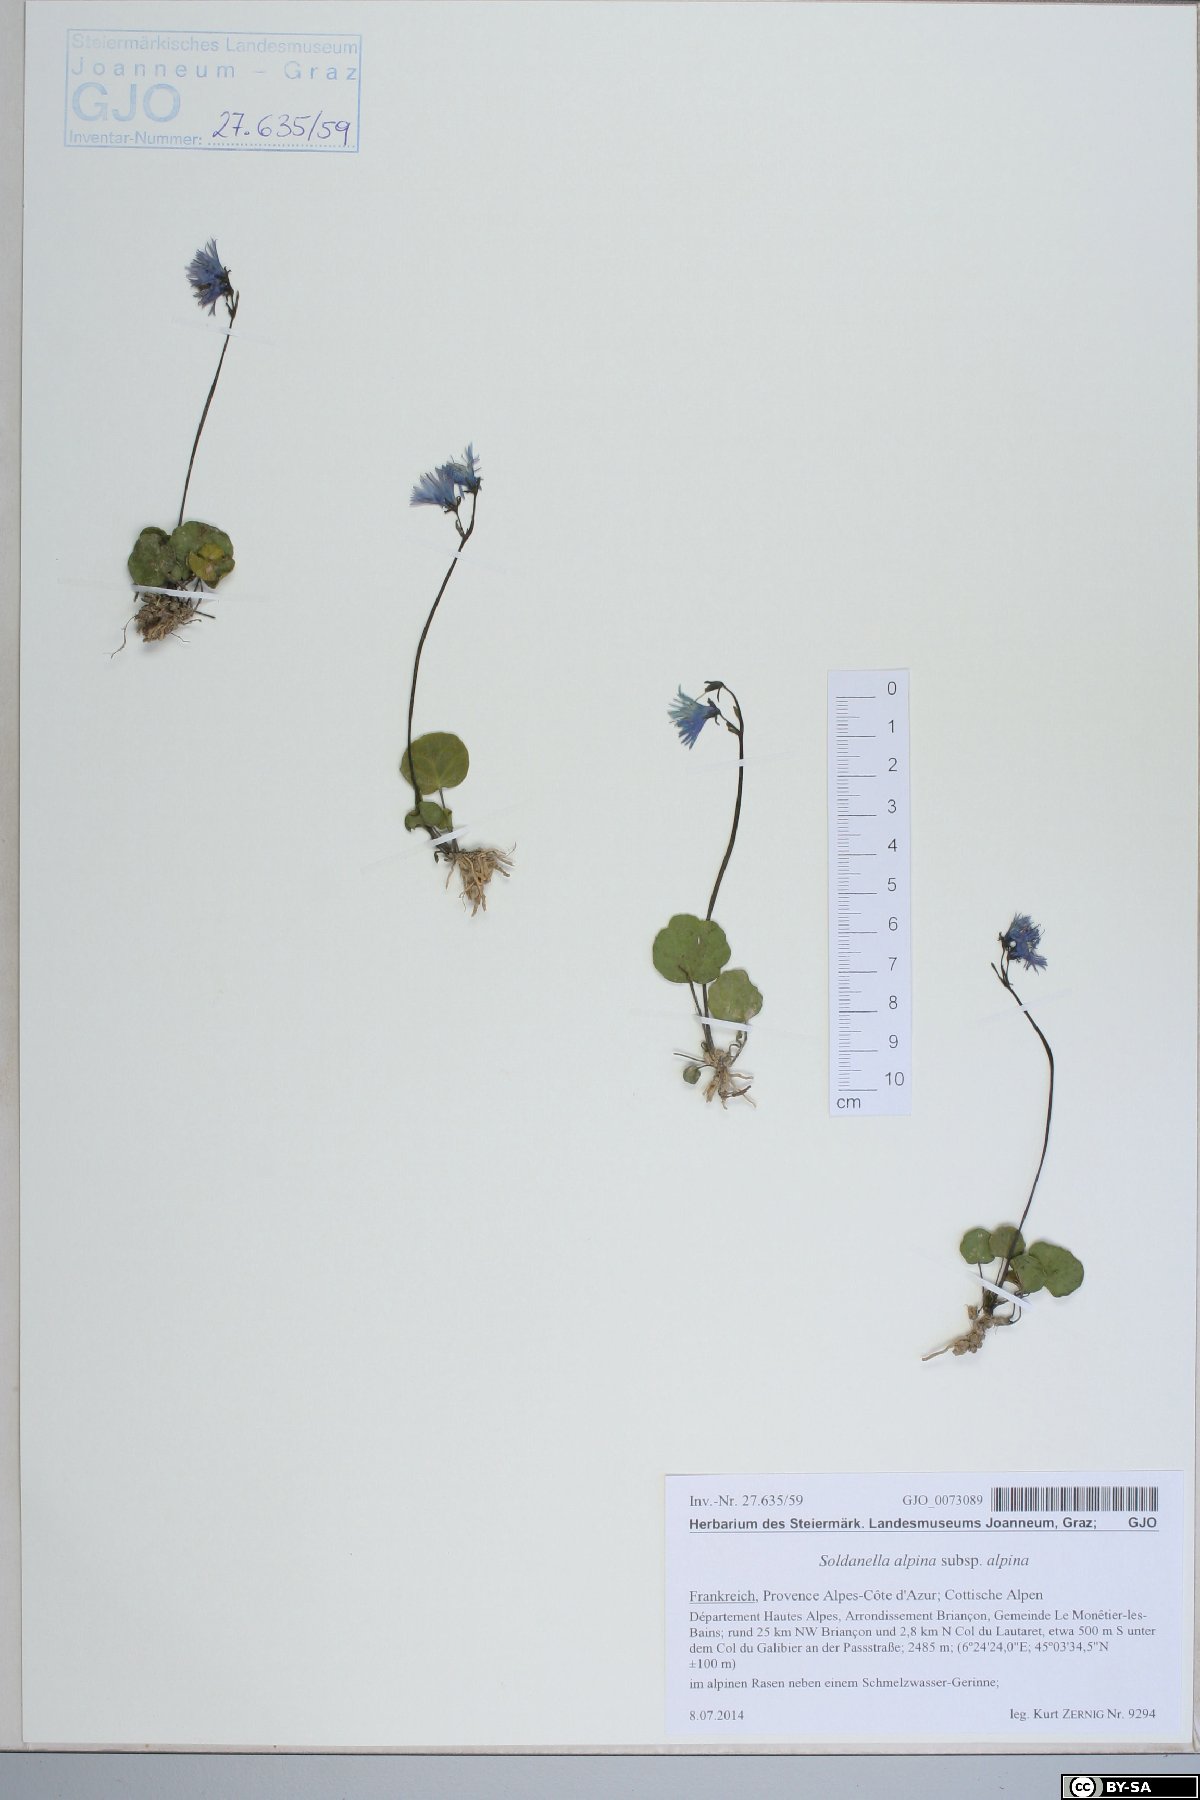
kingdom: Plantae
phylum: Tracheophyta
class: Magnoliopsida
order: Ericales
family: Primulaceae
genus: Soldanella
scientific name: Soldanella alpina
